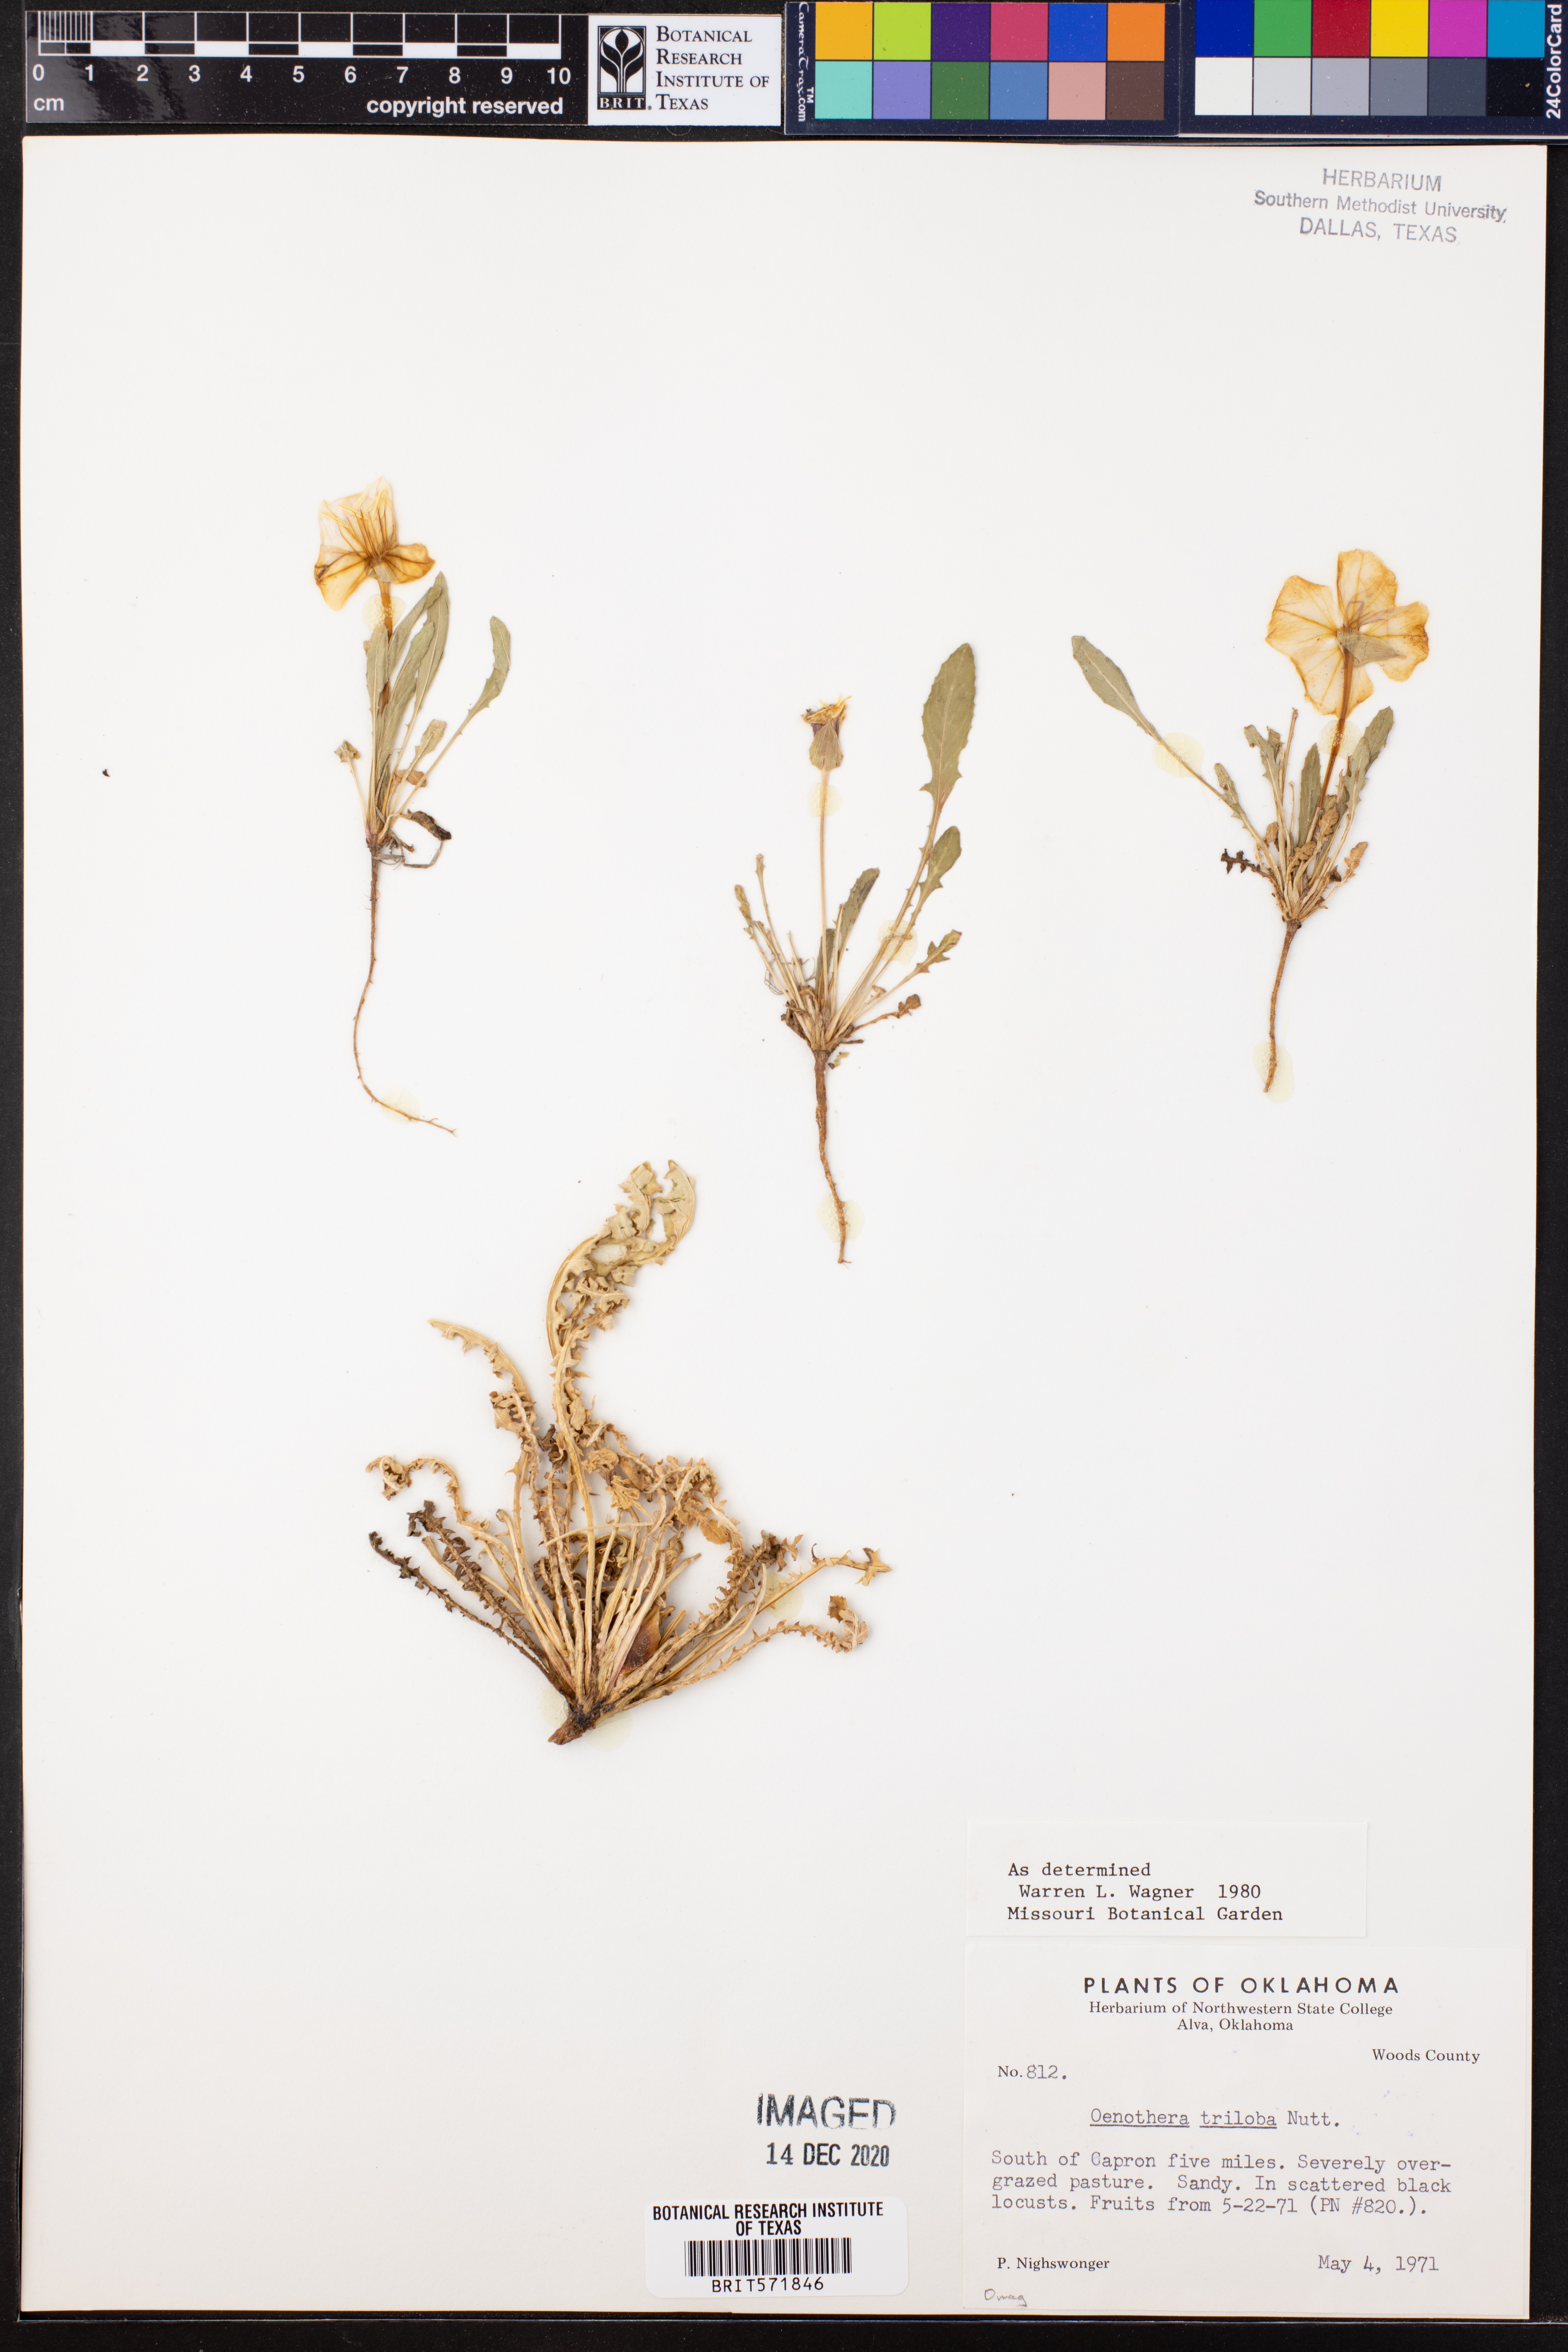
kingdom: Plantae
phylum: Tracheophyta
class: Magnoliopsida
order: Myrtales
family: Onagraceae
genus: Oenothera
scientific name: Oenothera triloba
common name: Sessile evening-primrose
